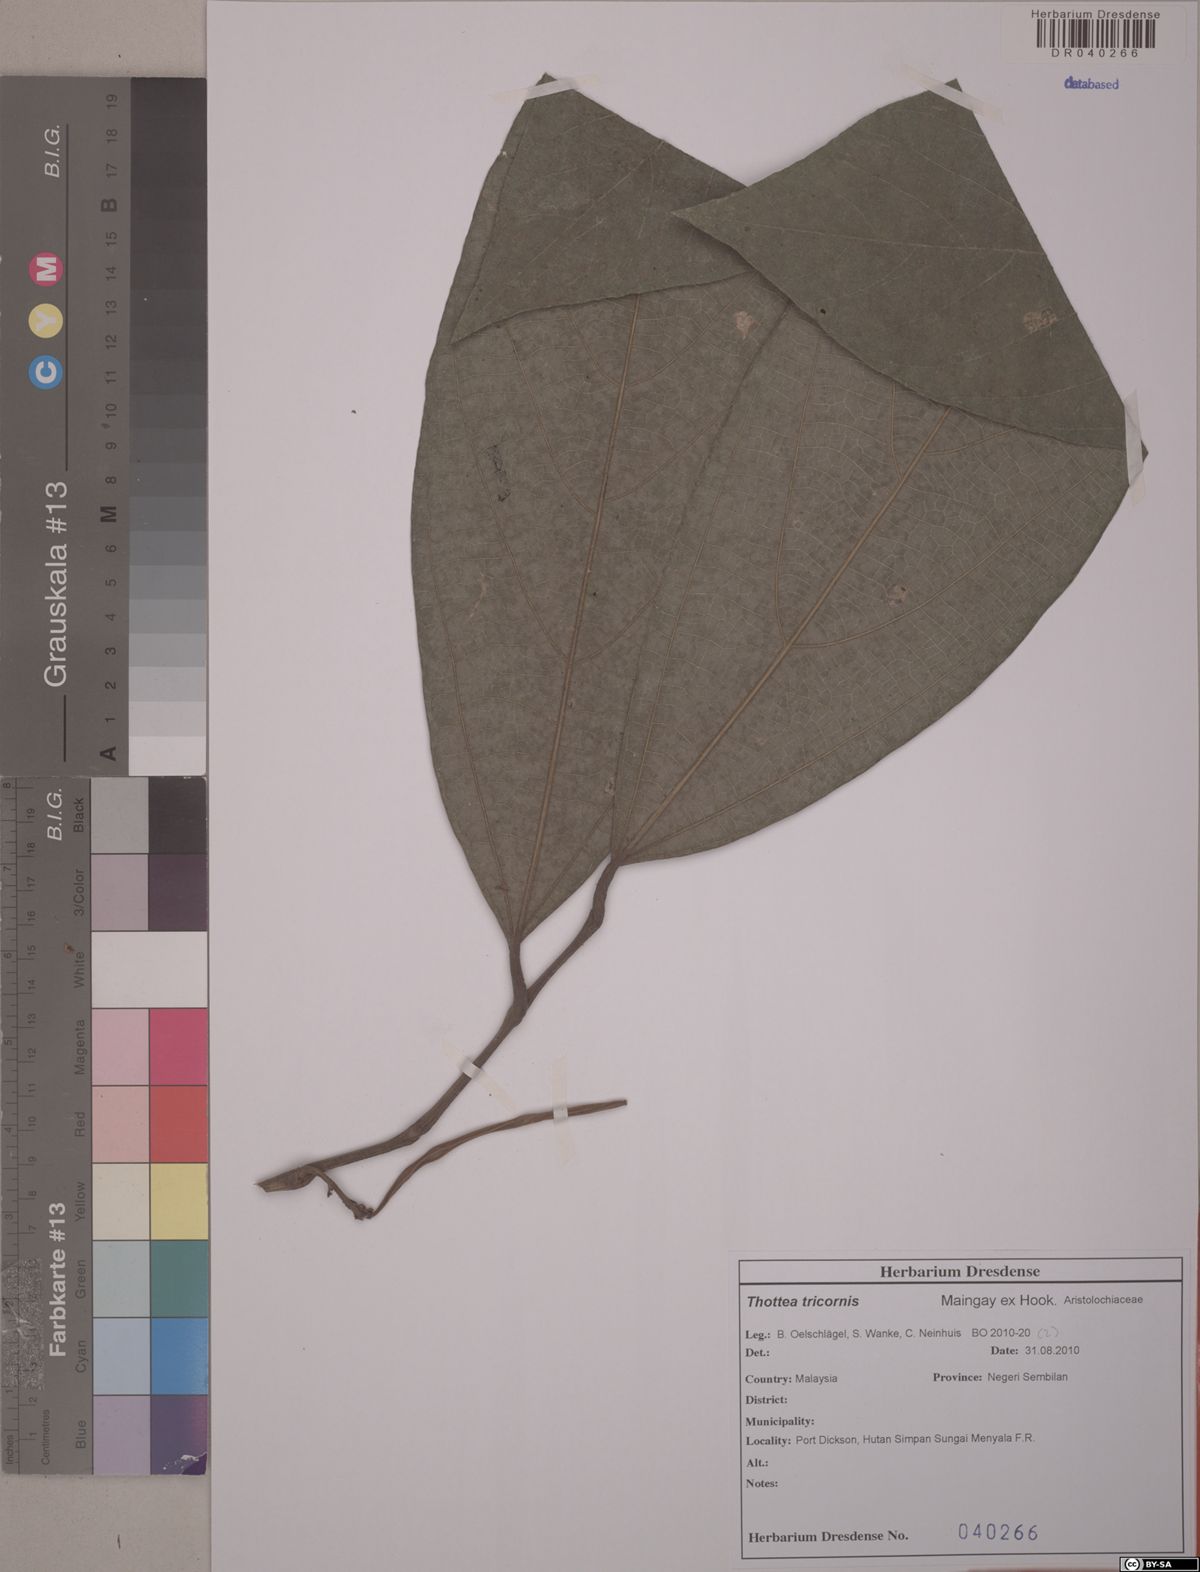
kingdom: Plantae
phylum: Tracheophyta
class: Magnoliopsida
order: Piperales
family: Aristolochiaceae
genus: Thottea
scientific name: Thottea tricornis
